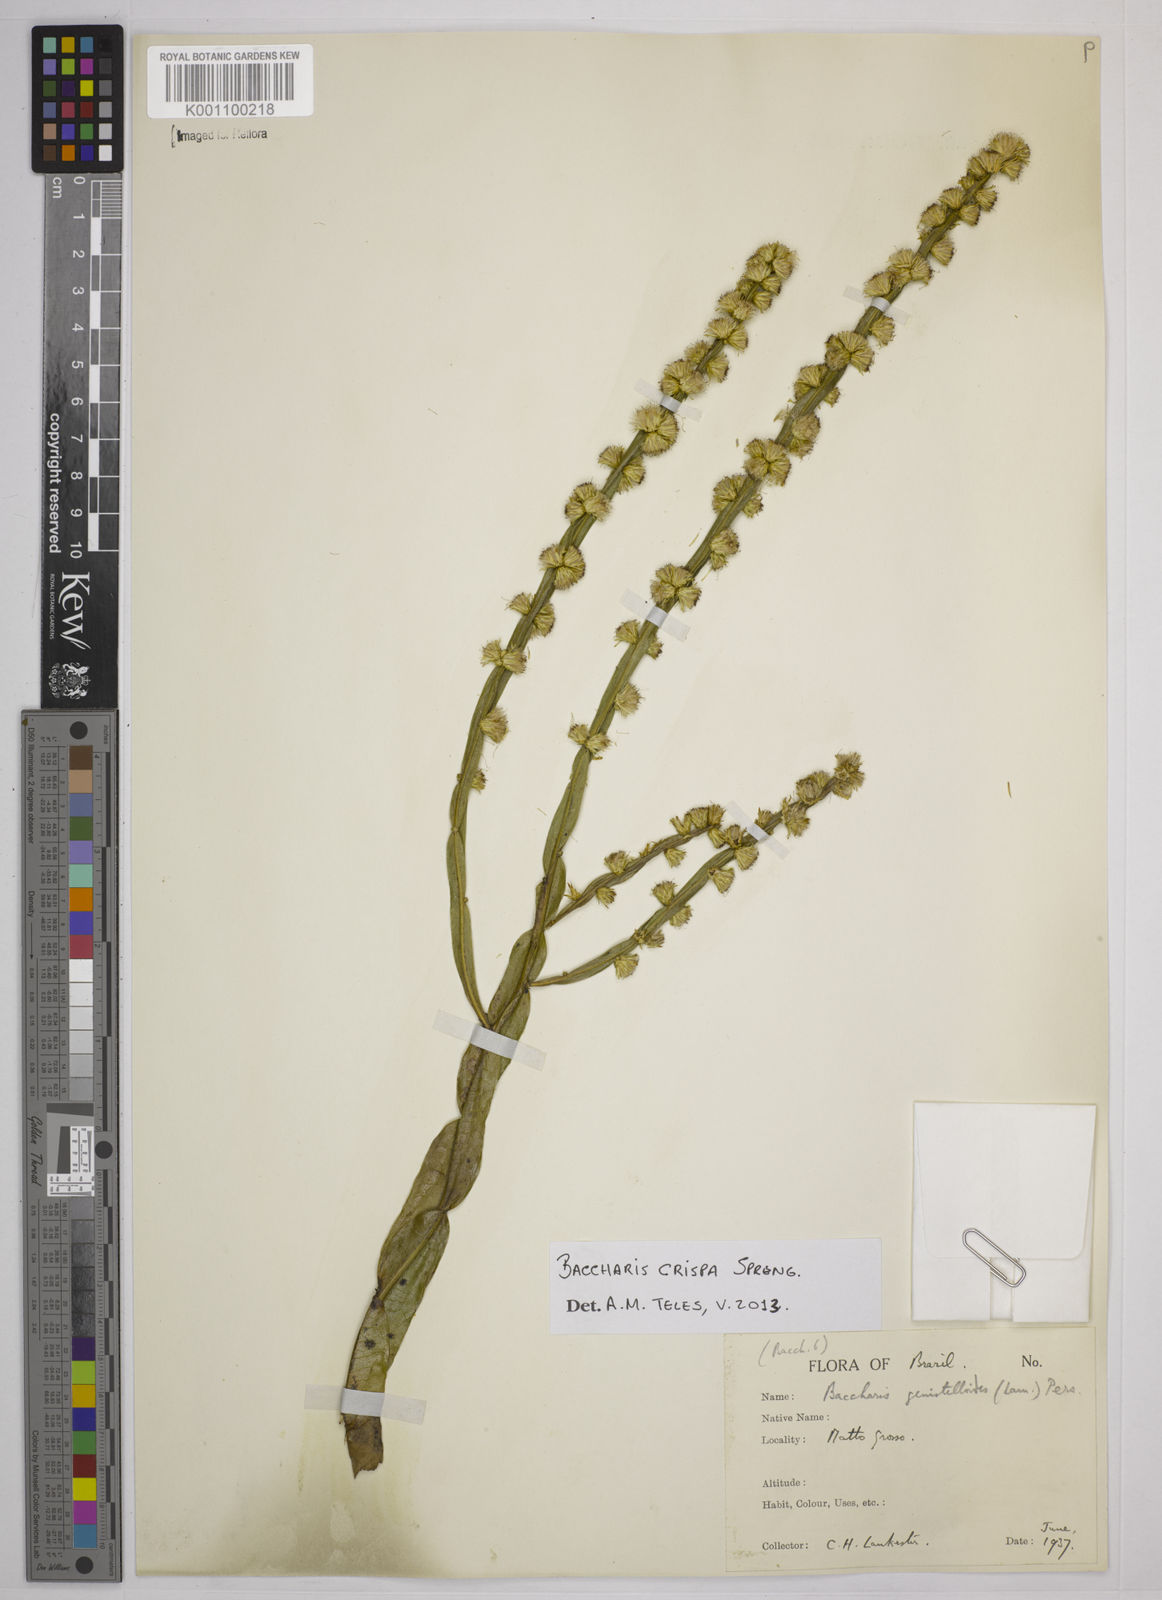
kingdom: Plantae
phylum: Tracheophyta
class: Magnoliopsida
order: Asterales
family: Asteraceae
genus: Baccharis
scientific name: Baccharis
